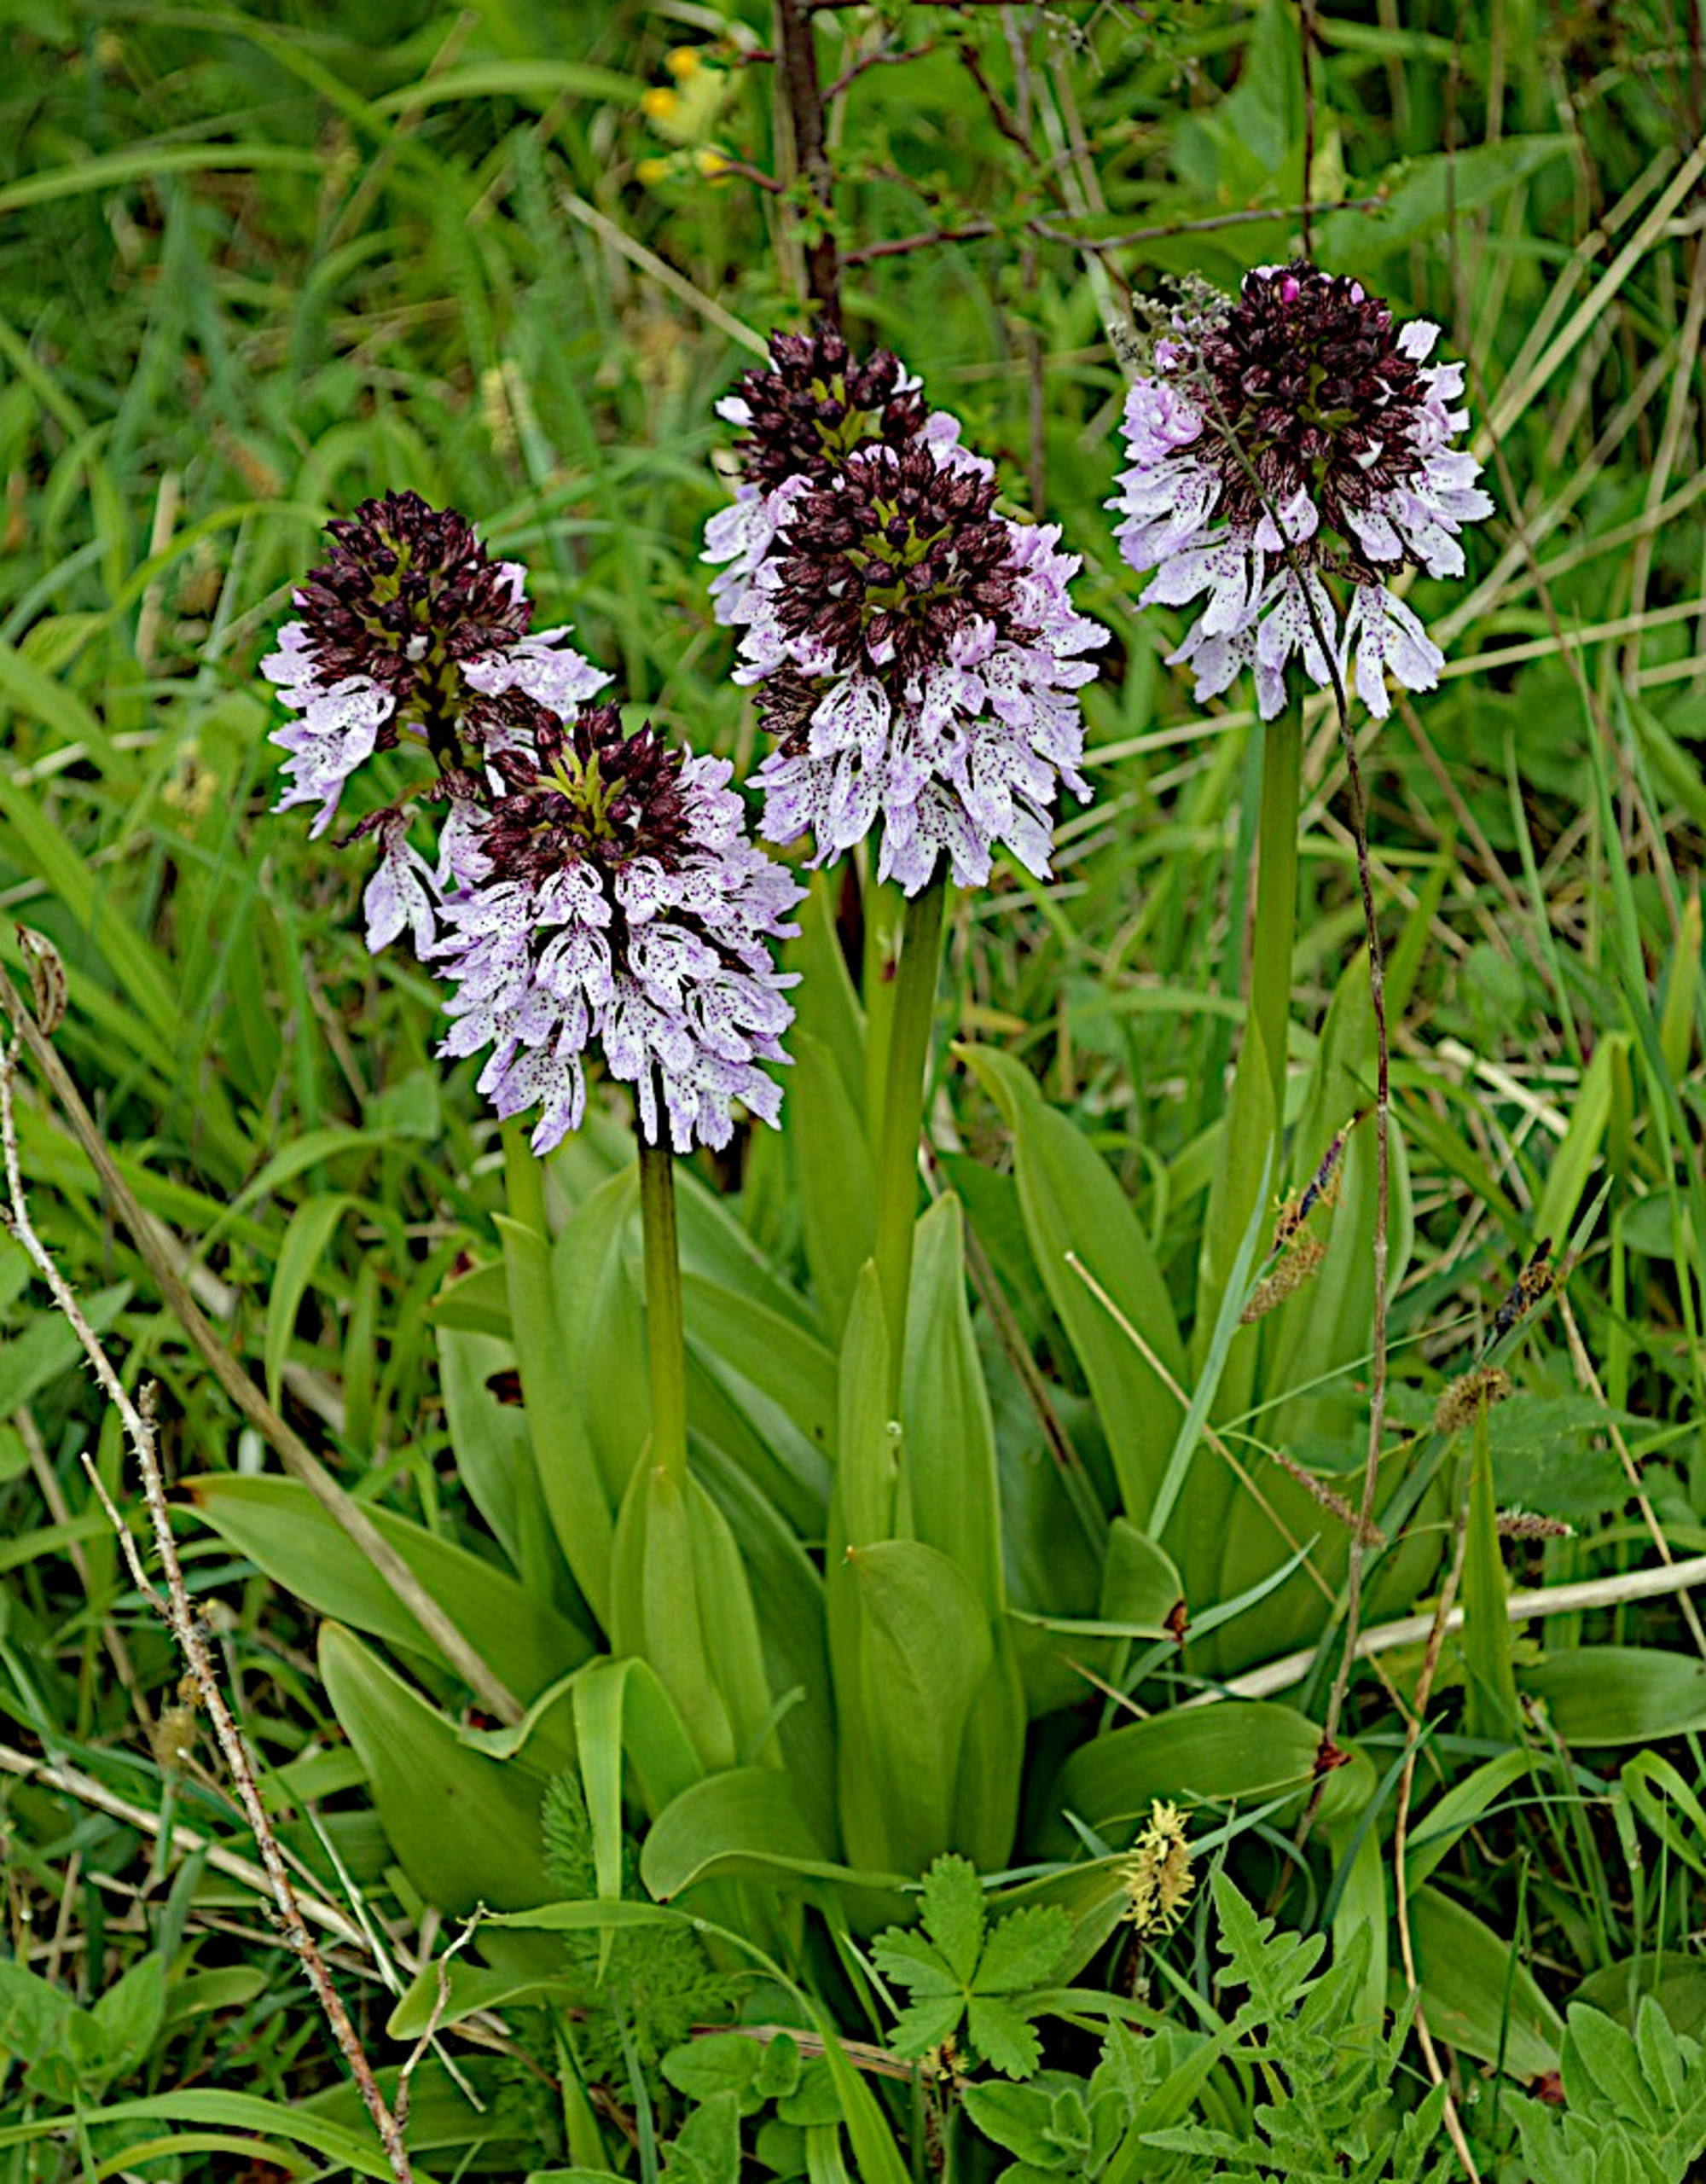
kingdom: Plantae
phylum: Tracheophyta
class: Liliopsida
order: Asparagales
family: Orchidaceae
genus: Orchis
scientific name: Orchis purpurea
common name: Stor gøgeurt
